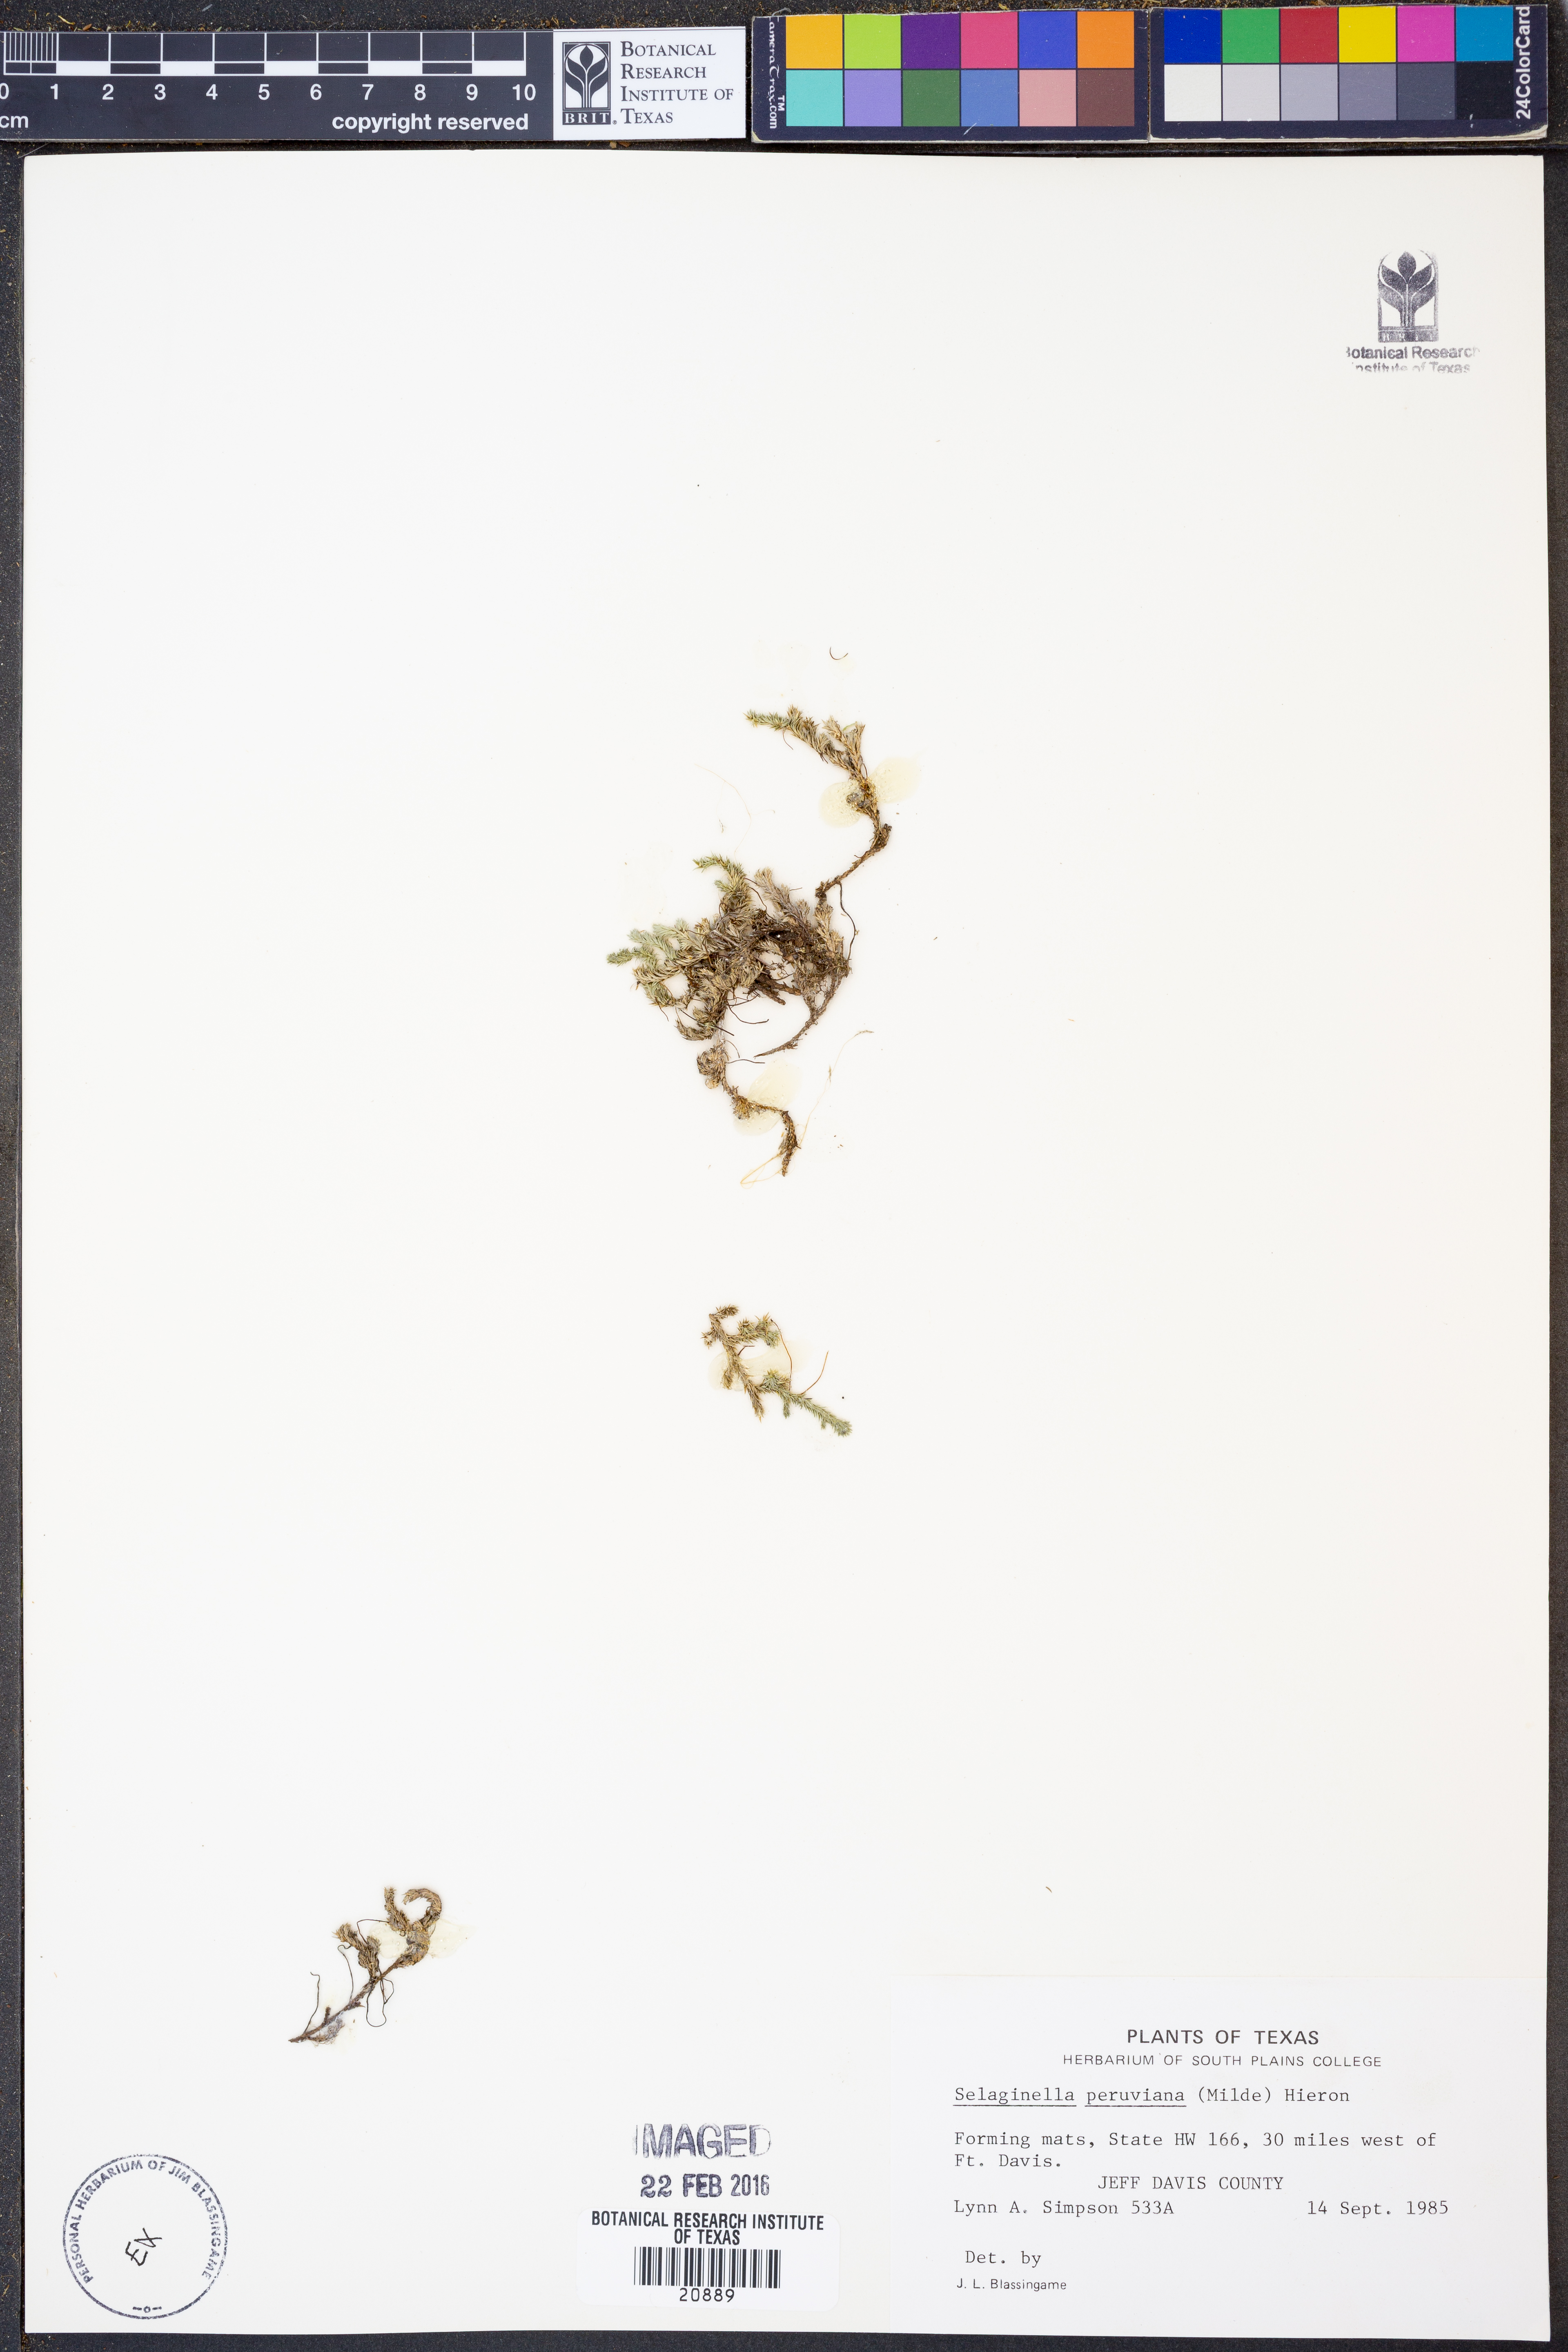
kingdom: Plantae
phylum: Tracheophyta
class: Lycopodiopsida
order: Selaginellales
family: Selaginellaceae
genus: Selaginella
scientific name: Selaginella peruviana
